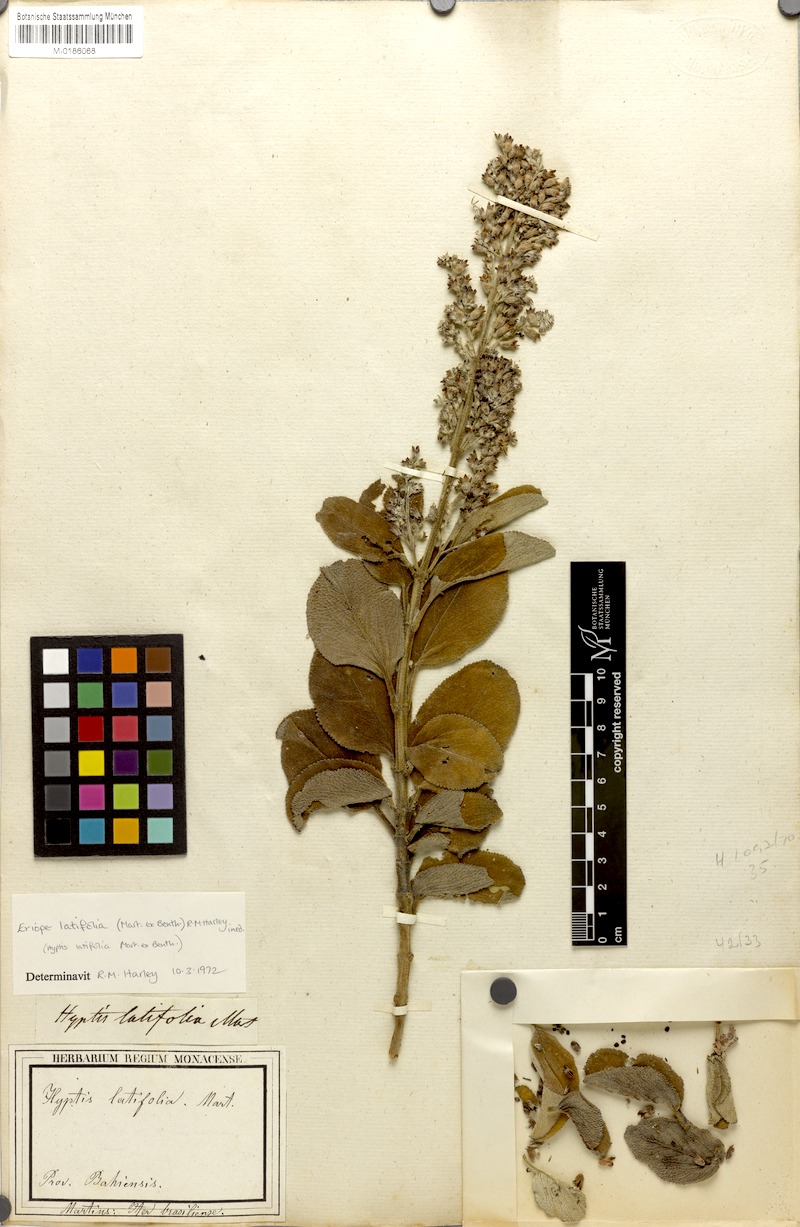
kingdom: Plantae
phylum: Tracheophyta
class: Magnoliopsida
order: Lamiales
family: Lamiaceae
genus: Eriope
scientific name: Eriope latifolia
